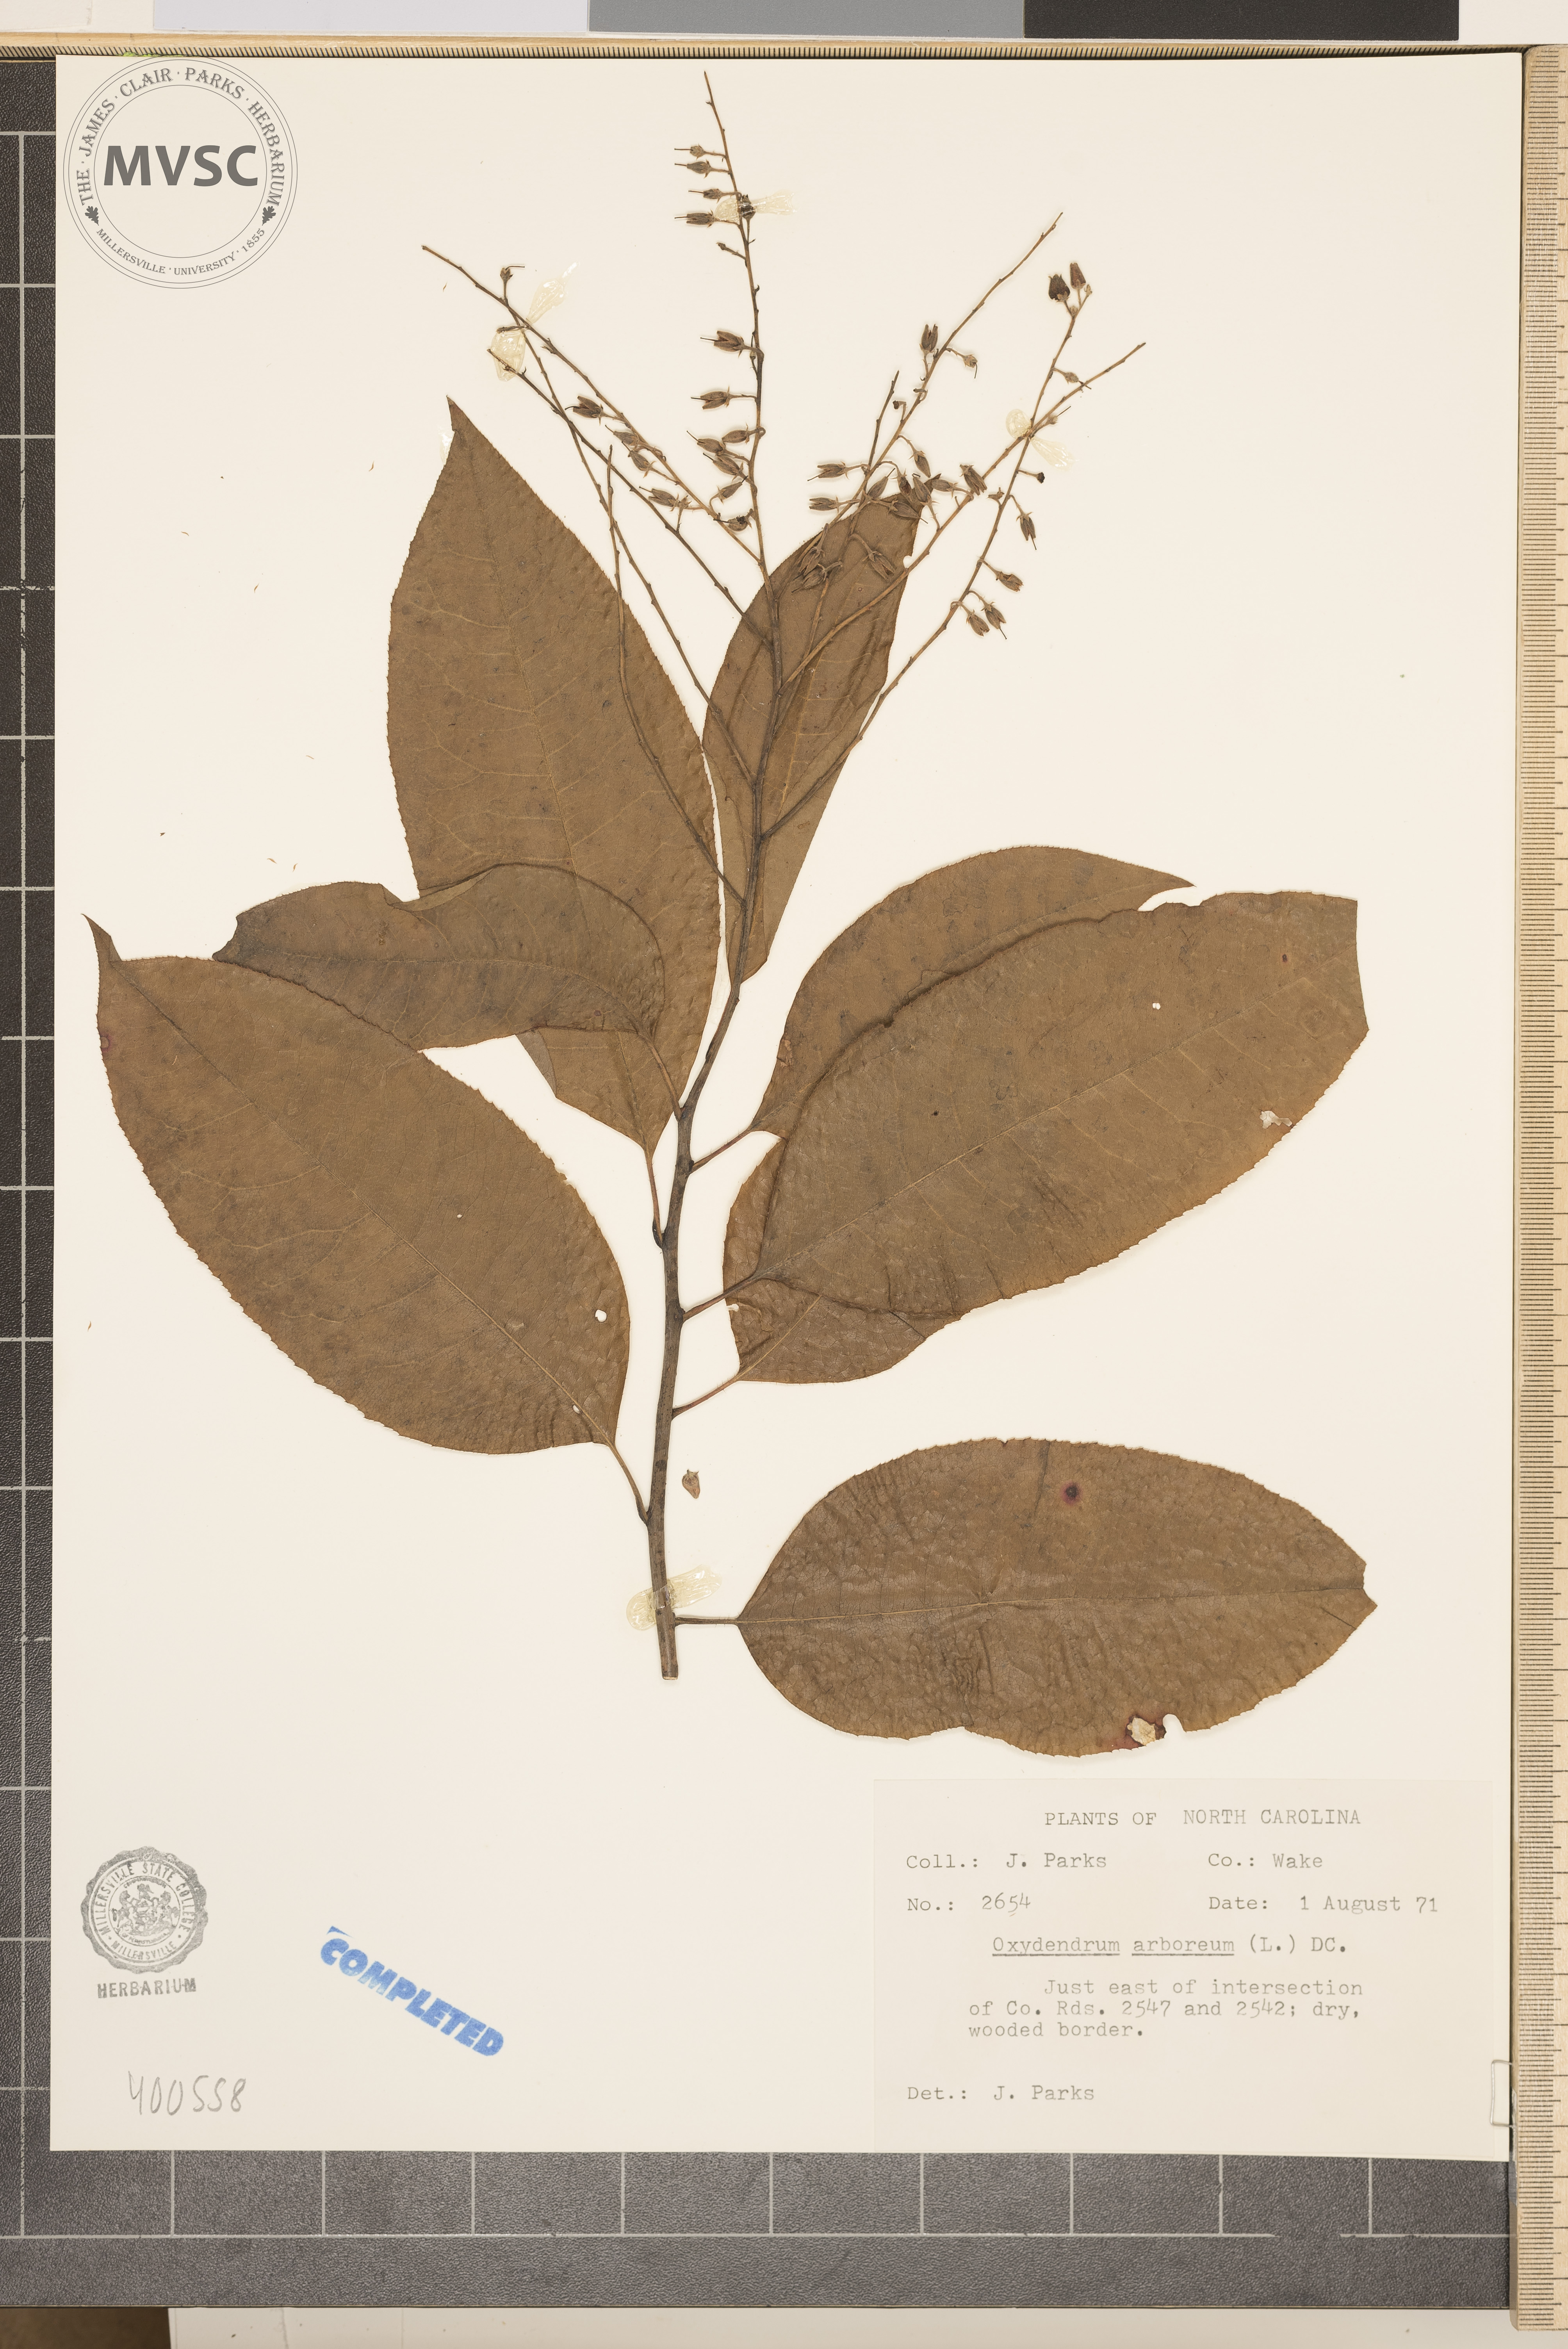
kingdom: Plantae
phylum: Tracheophyta
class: Magnoliopsida
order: Ericales
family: Ericaceae
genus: Oxydendrum
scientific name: Oxydendrum arboreum
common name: Sourwood
